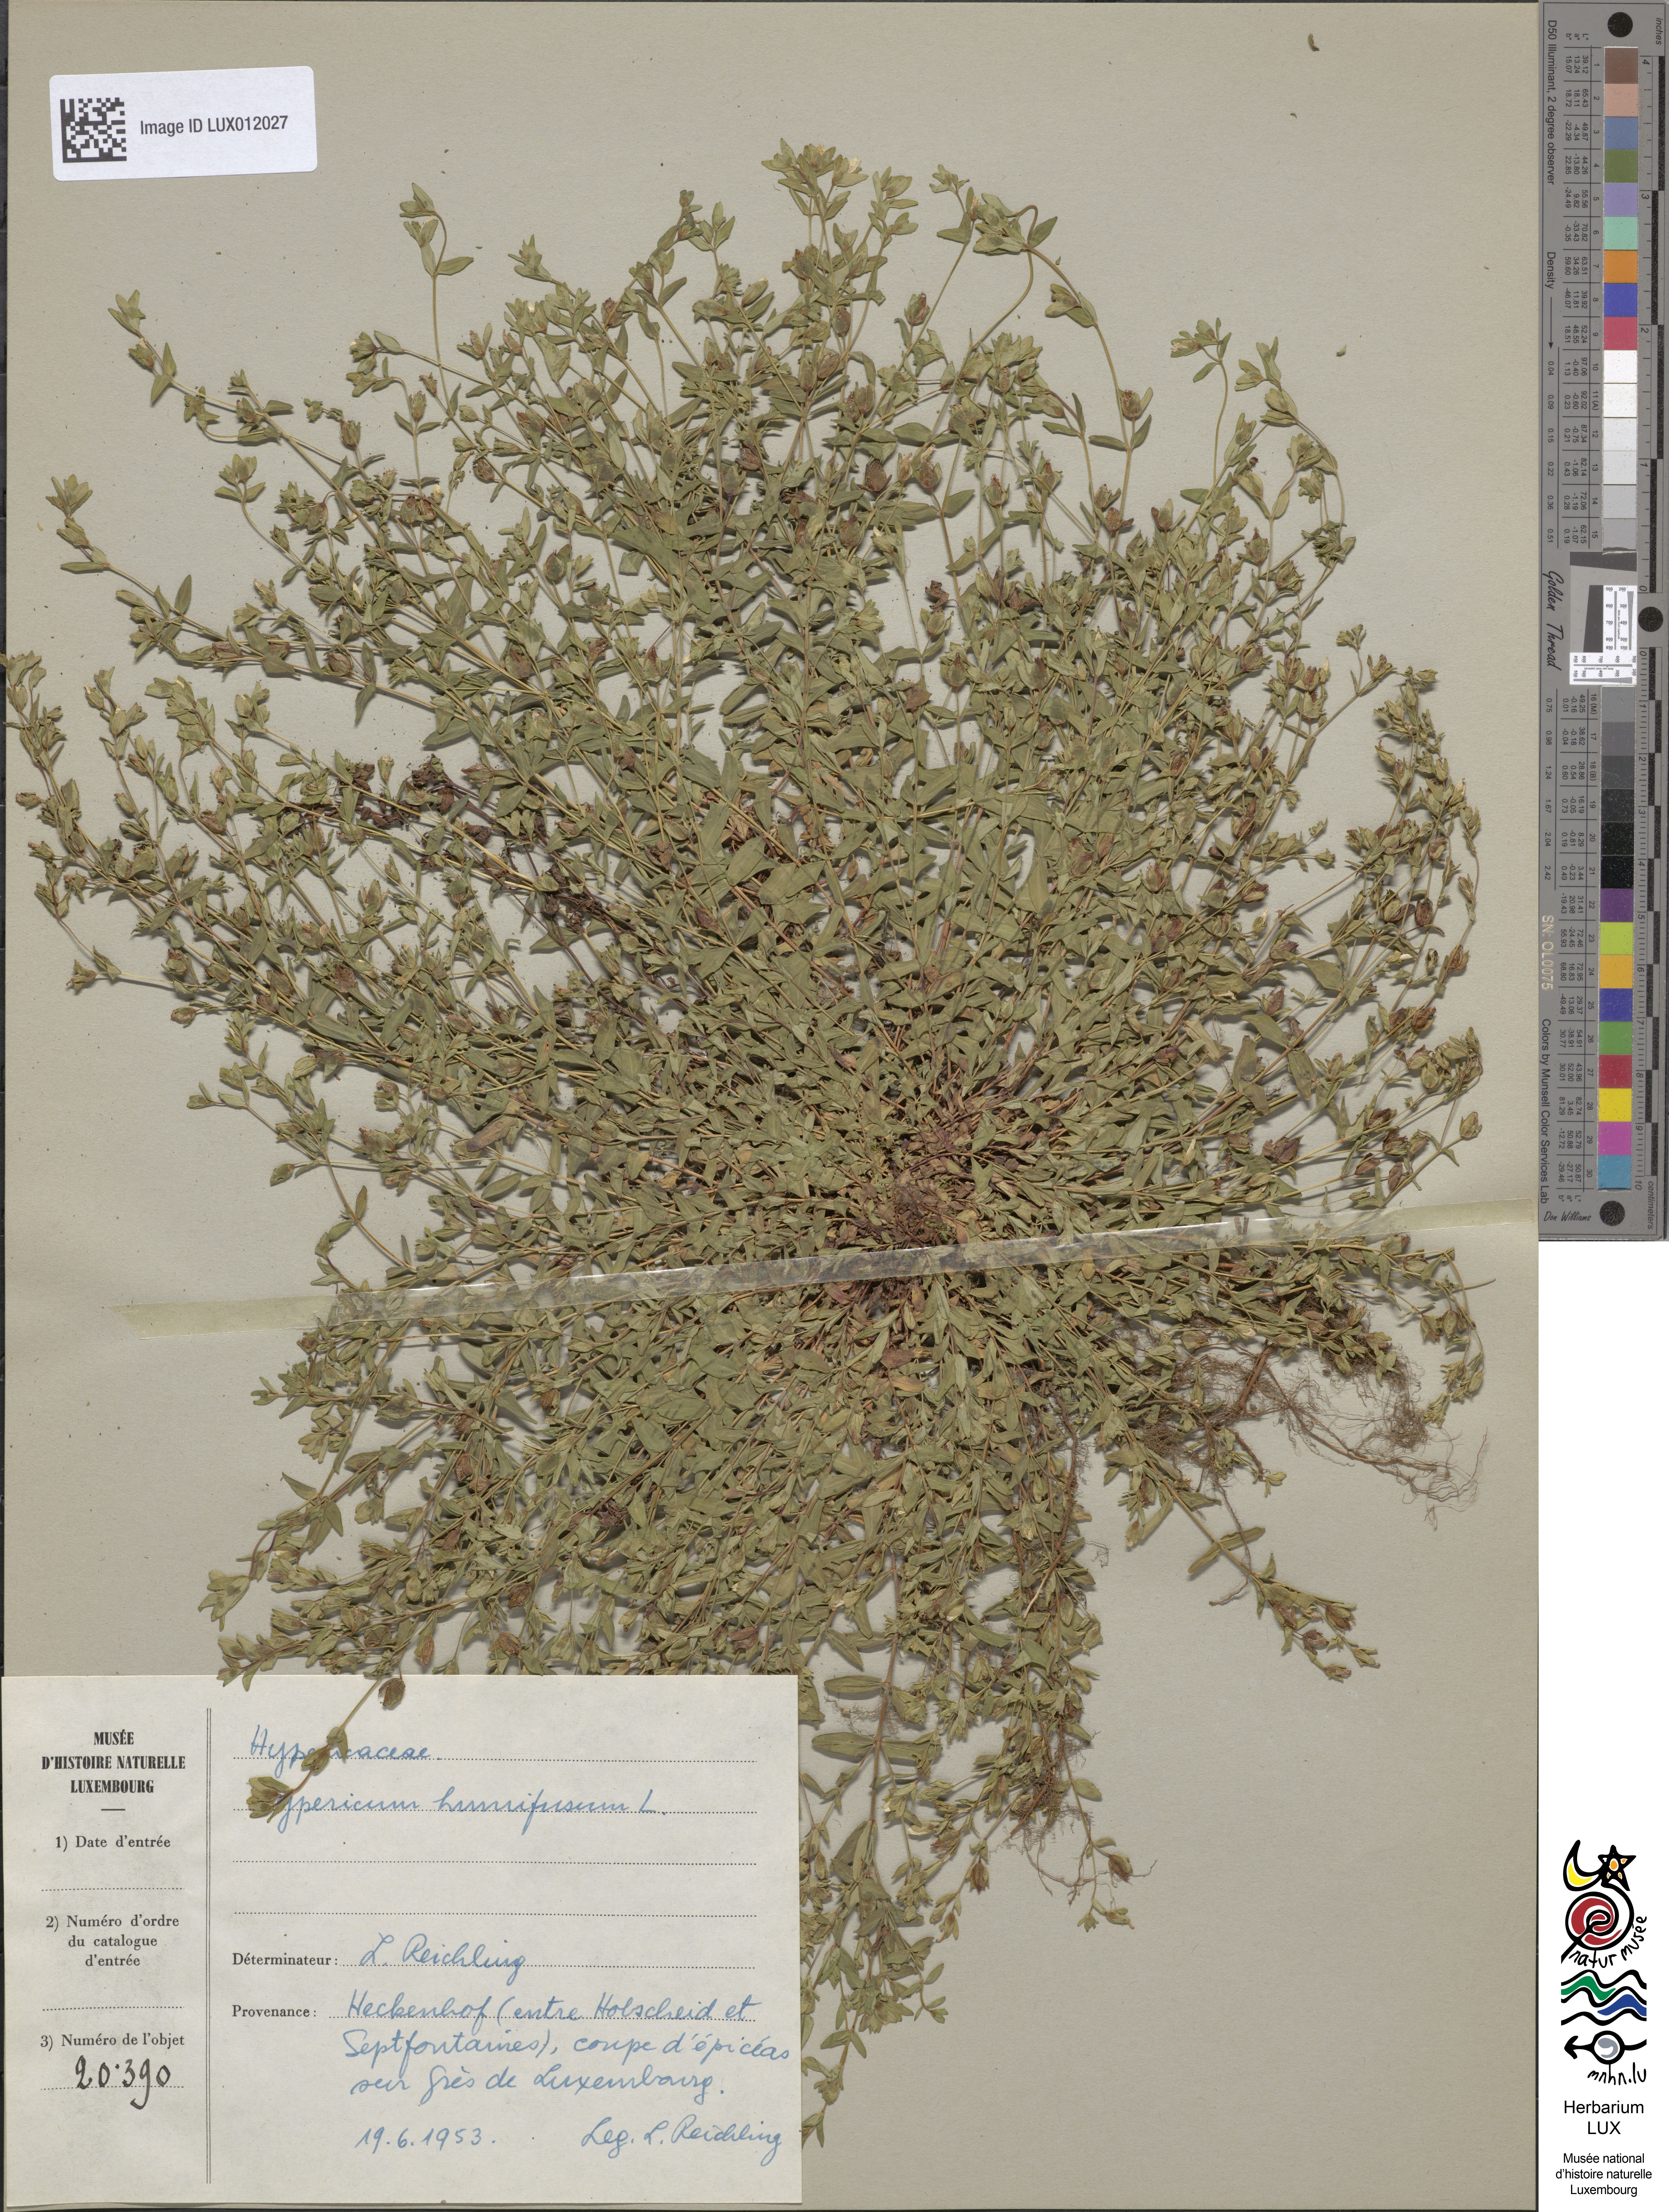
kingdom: Plantae
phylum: Tracheophyta
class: Magnoliopsida
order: Malpighiales
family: Hypericaceae
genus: Hypericum
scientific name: Hypericum humifusum
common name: Trailing st. john's-wort
